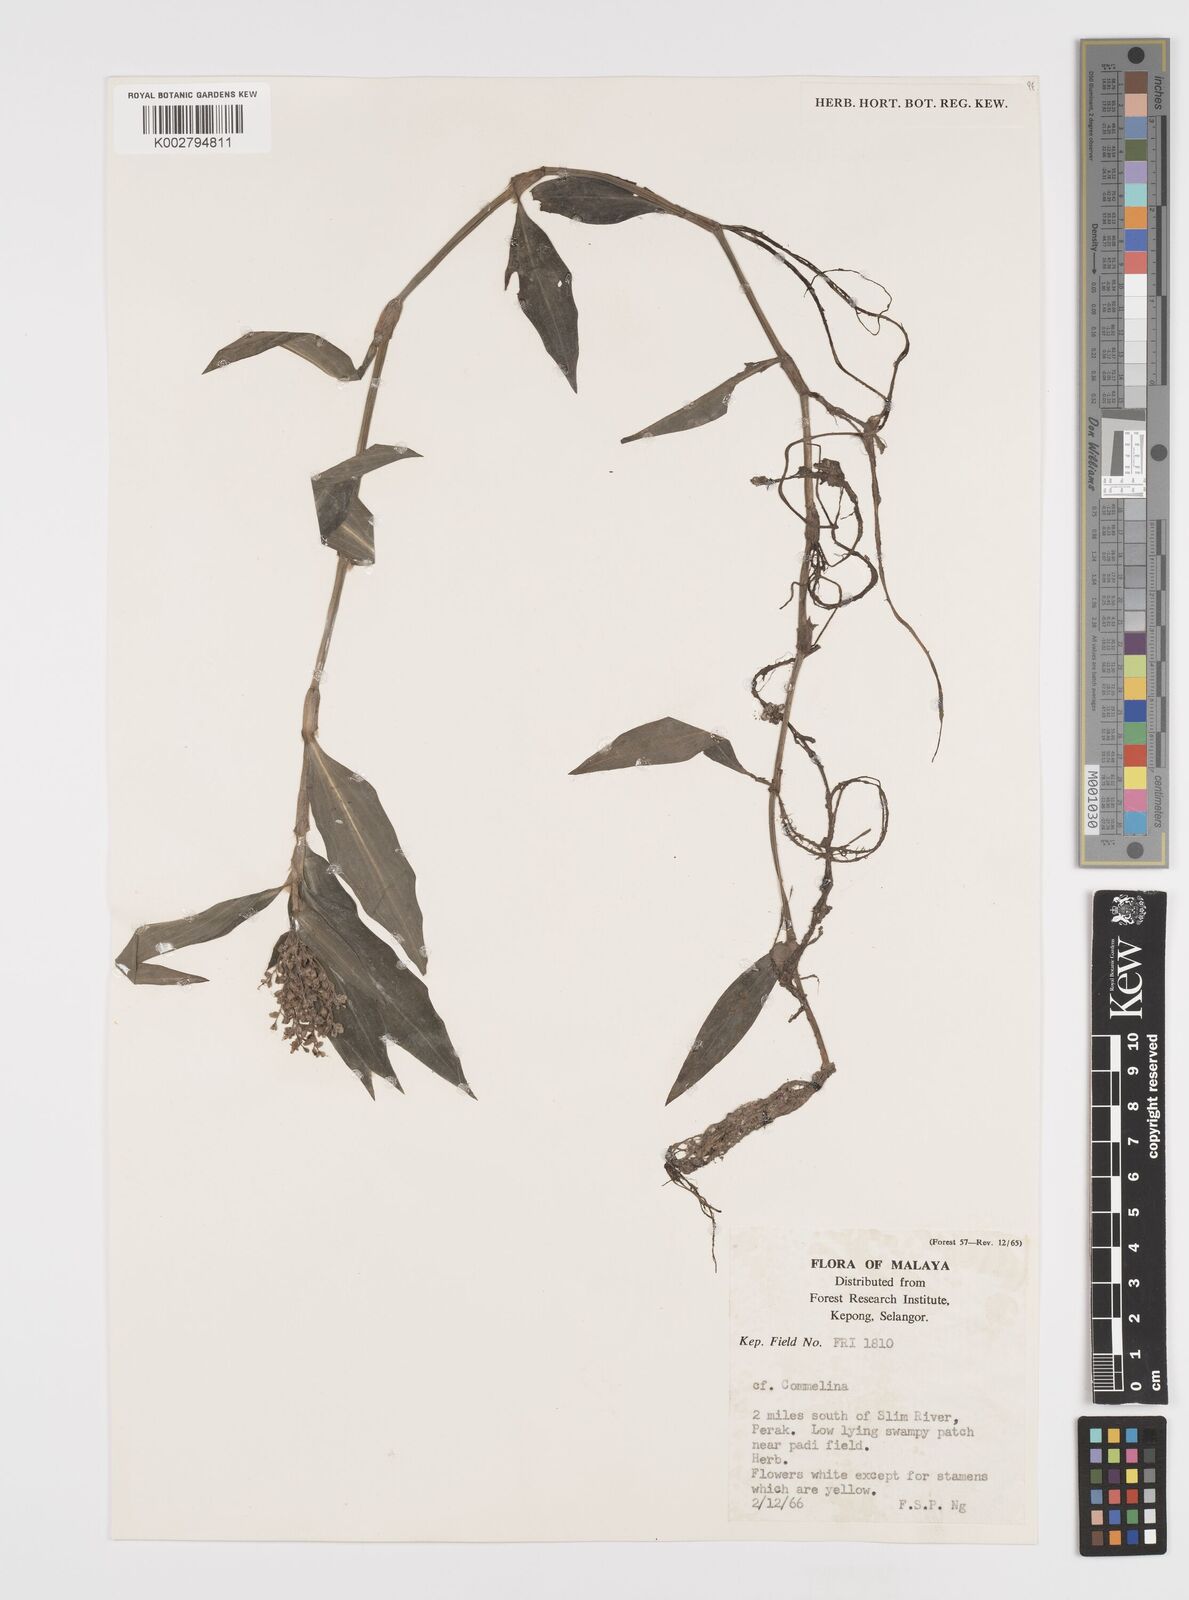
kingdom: Plantae
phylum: Tracheophyta
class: Liliopsida
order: Commelinales
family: Commelinaceae
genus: Floscopa
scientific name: Floscopa scandens
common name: Climbing flower cup
